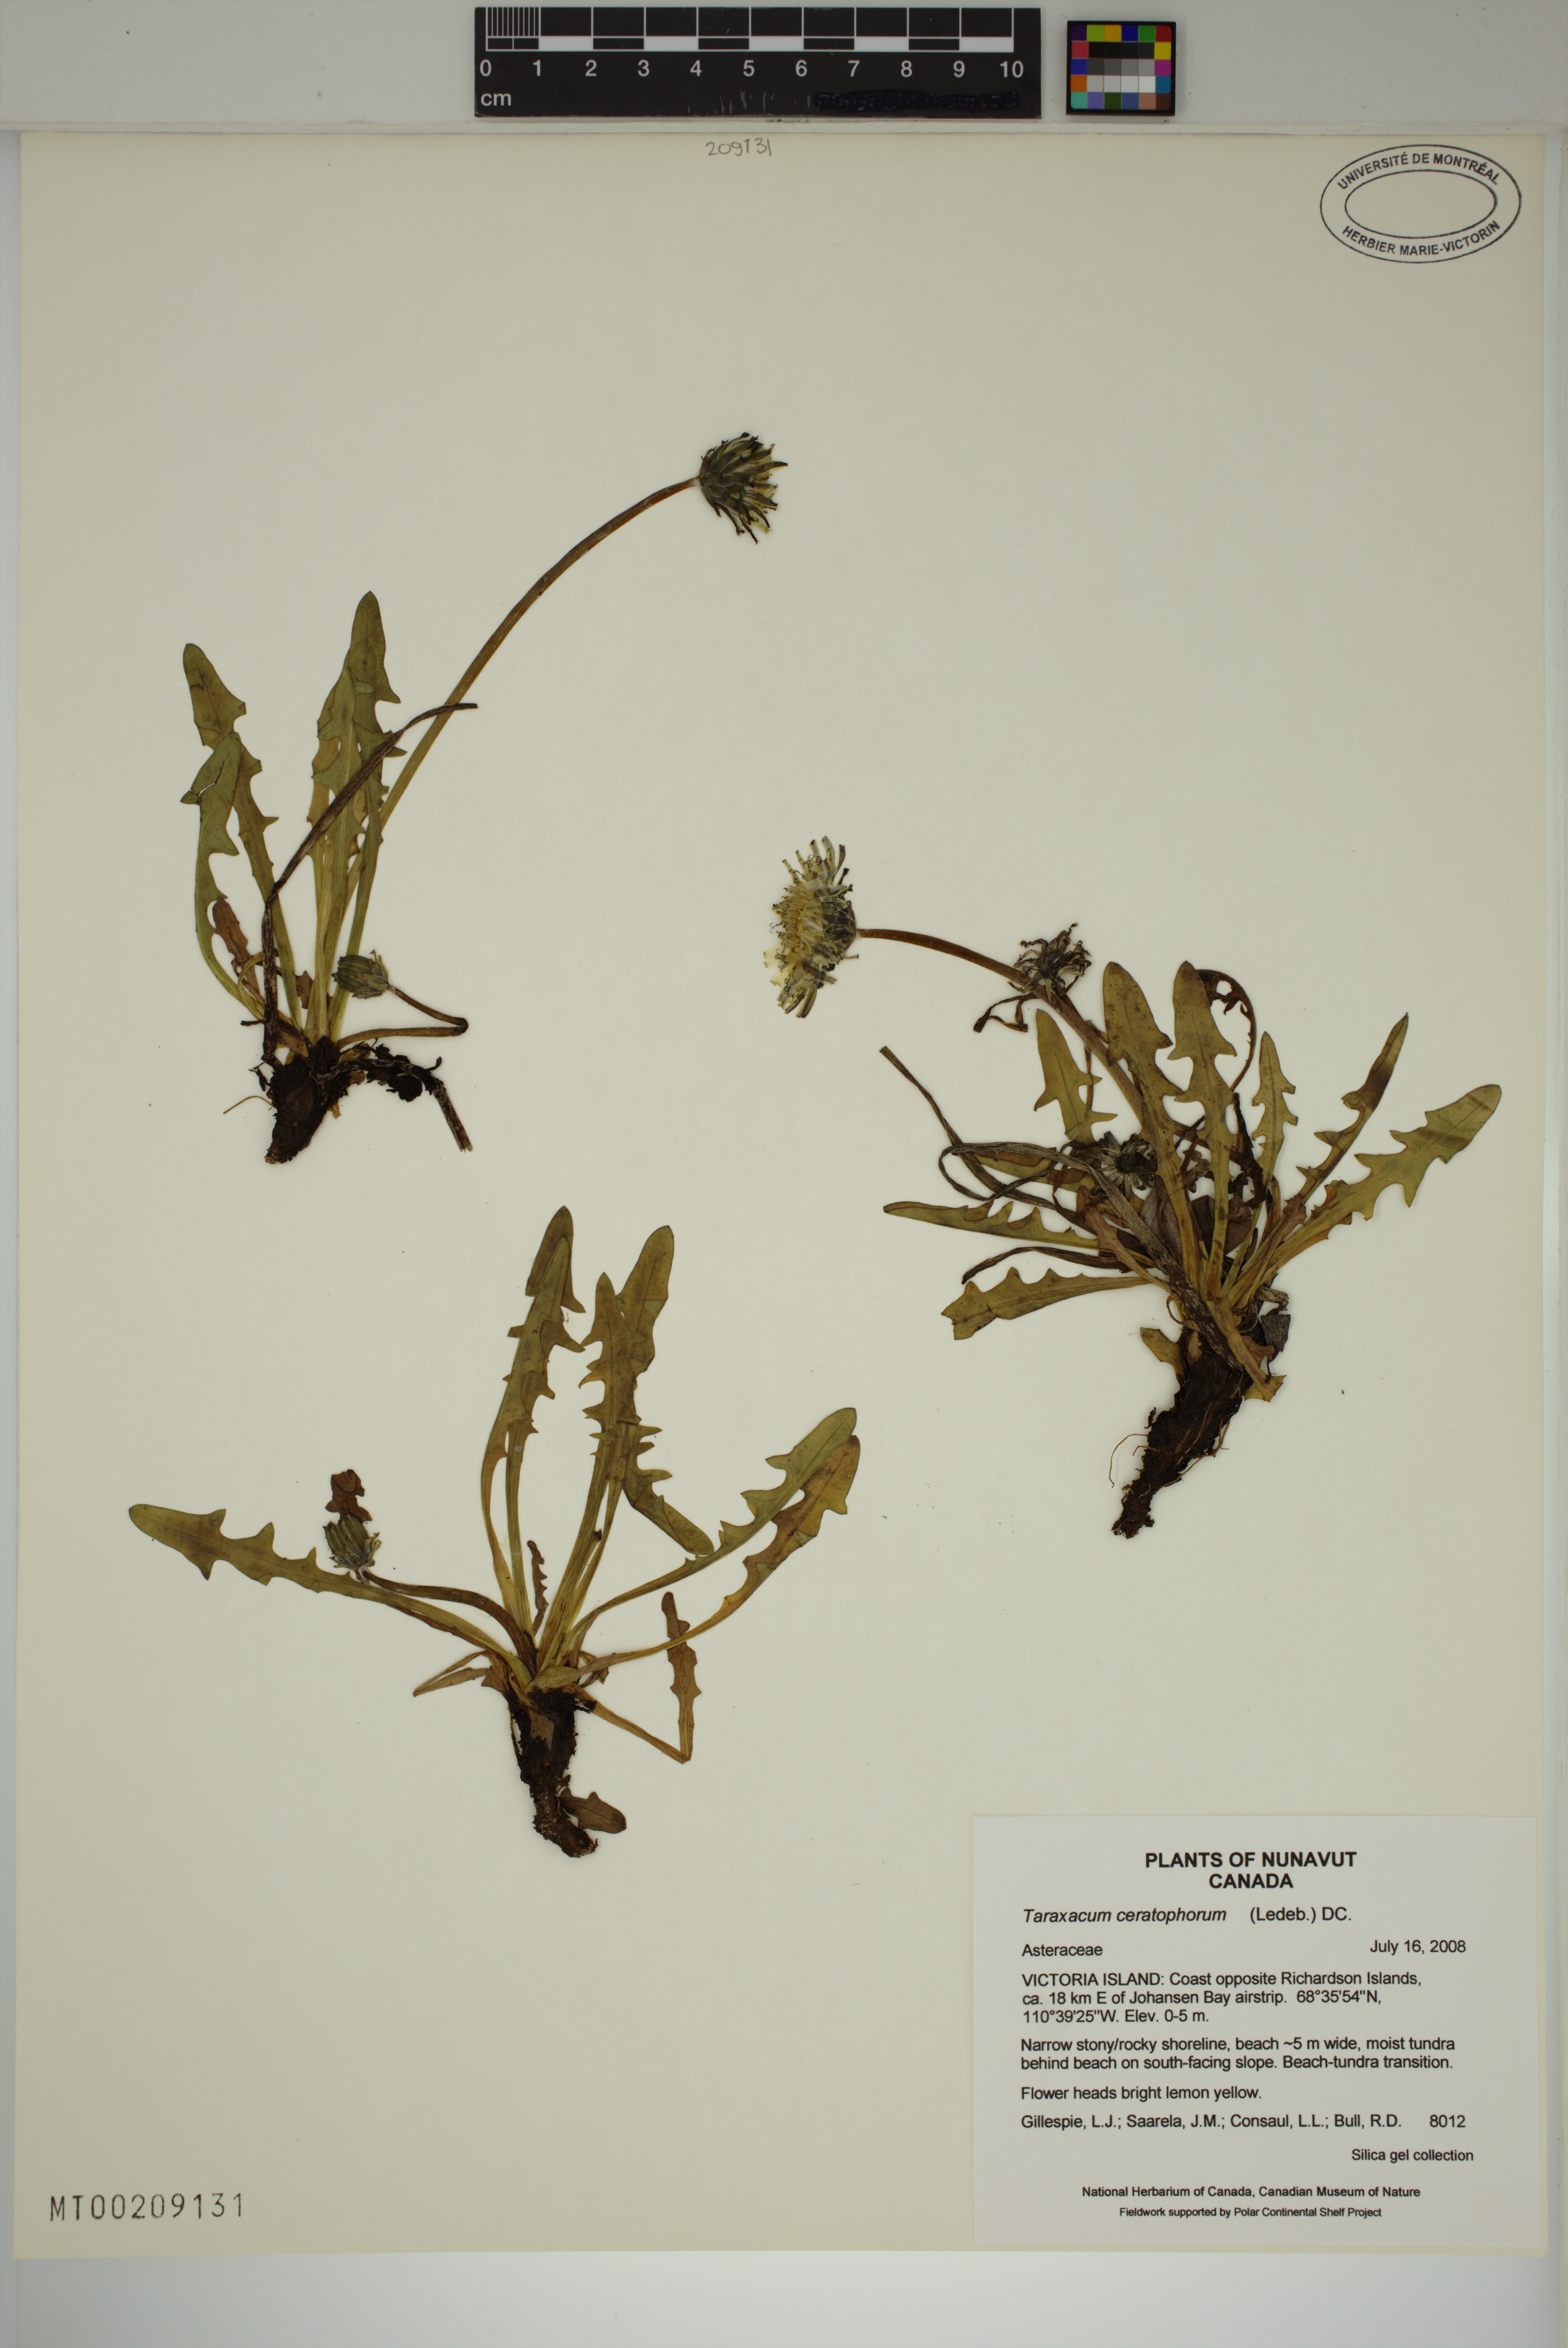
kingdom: Plantae
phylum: Tracheophyta
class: Magnoliopsida
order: Asterales
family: Asteraceae
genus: Taraxacum
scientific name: Taraxacum ceratophorum
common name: Horn-bearing dandelion
